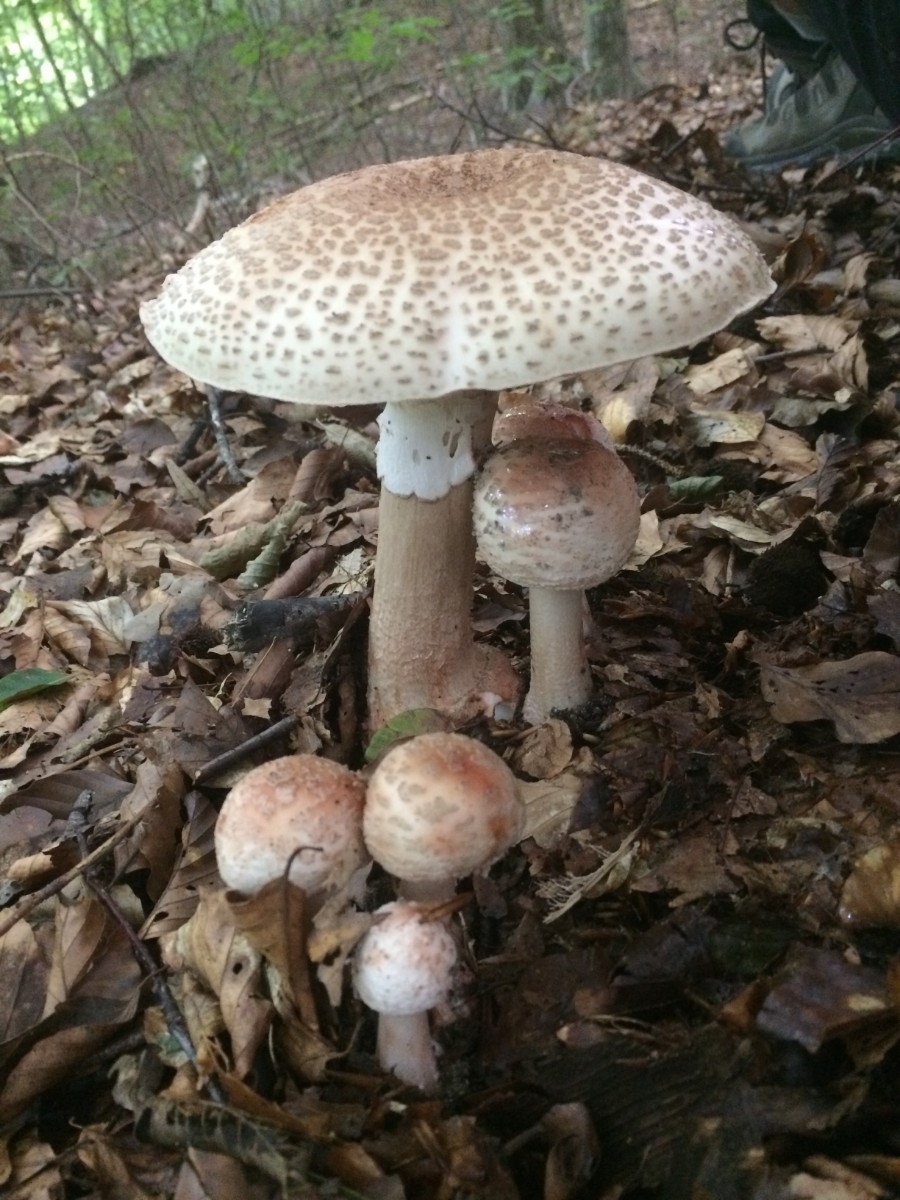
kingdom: Fungi
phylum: Basidiomycota
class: Agaricomycetes
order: Agaricales
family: Amanitaceae
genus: Amanita
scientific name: Amanita rubescens
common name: rødmende fluesvamp
